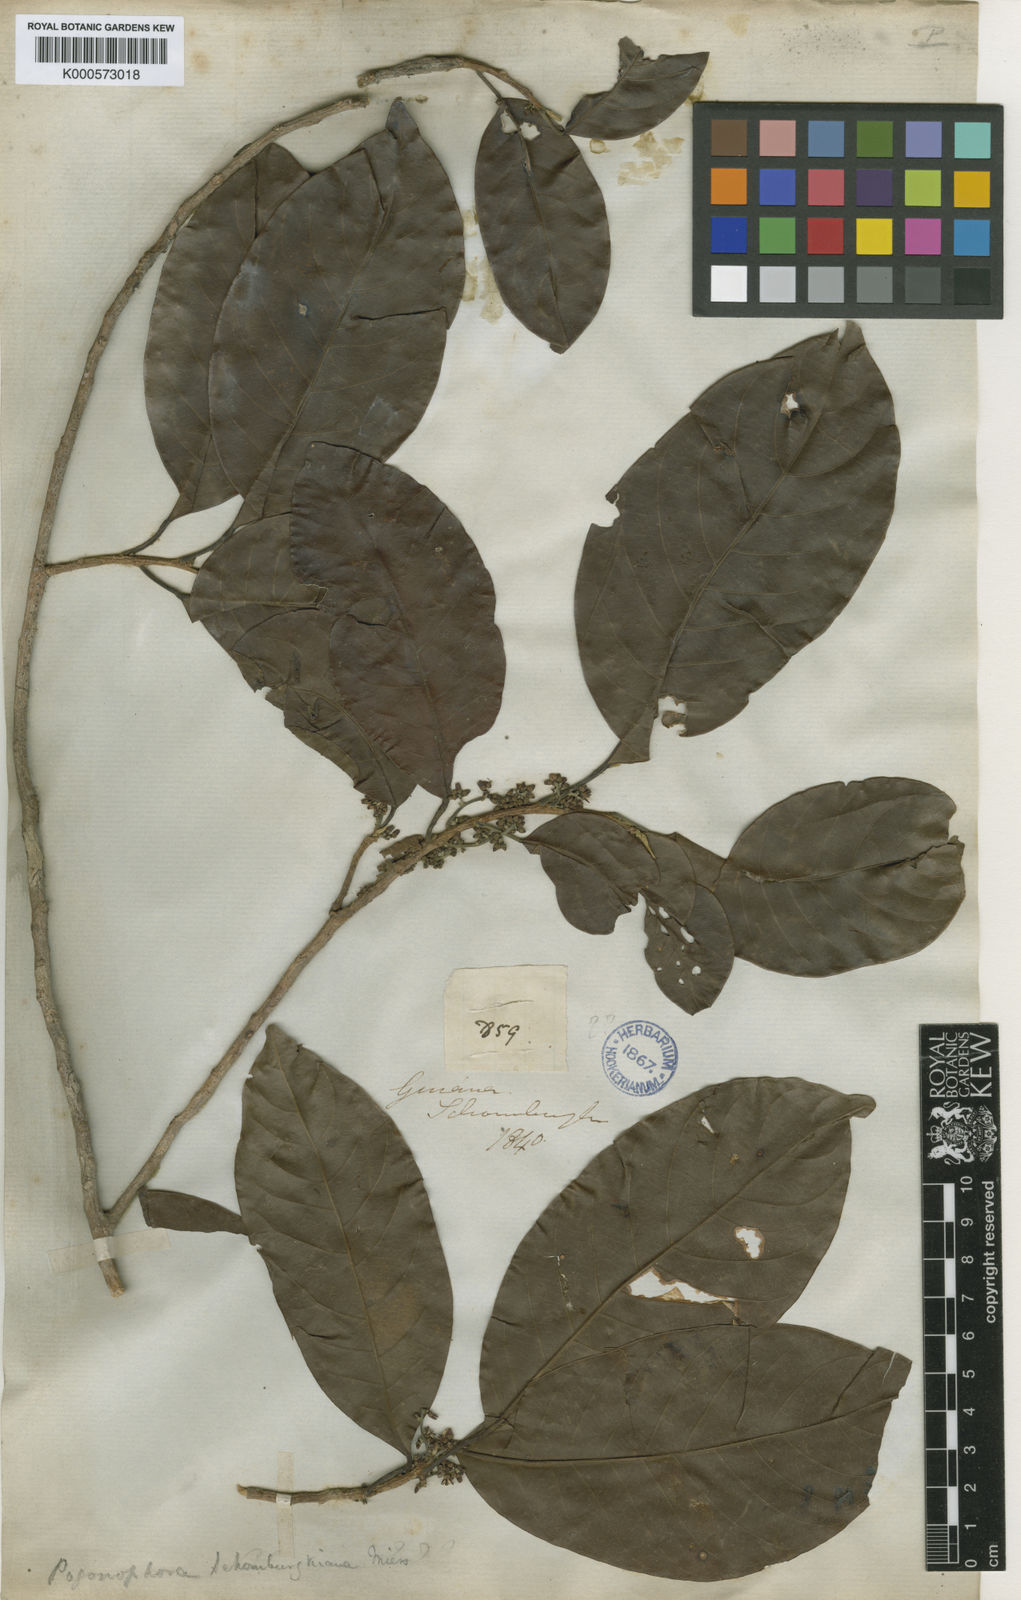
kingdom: Plantae
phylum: Tracheophyta
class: Magnoliopsida
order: Malpighiales
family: Peraceae
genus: Pogonophora
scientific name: Pogonophora schomburgkiana
